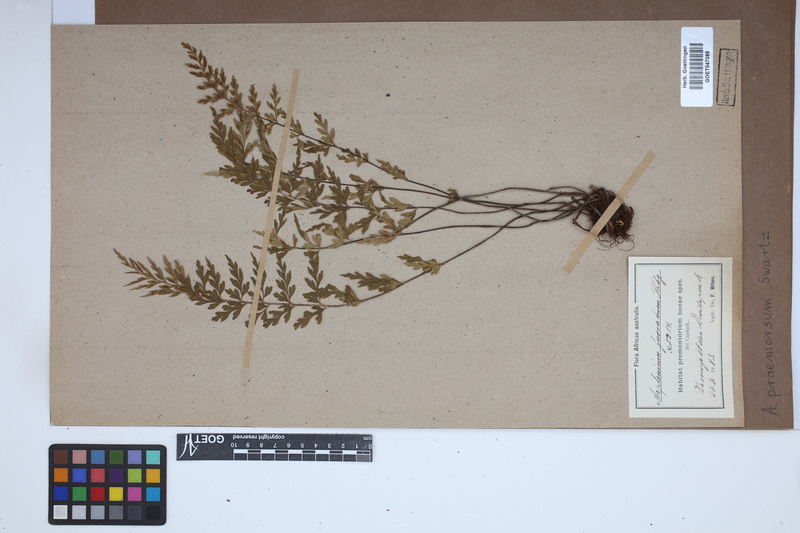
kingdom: Plantae
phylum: Tracheophyta
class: Polypodiopsida
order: Polypodiales
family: Aspleniaceae
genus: Asplenium
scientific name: Asplenium praemorsum
